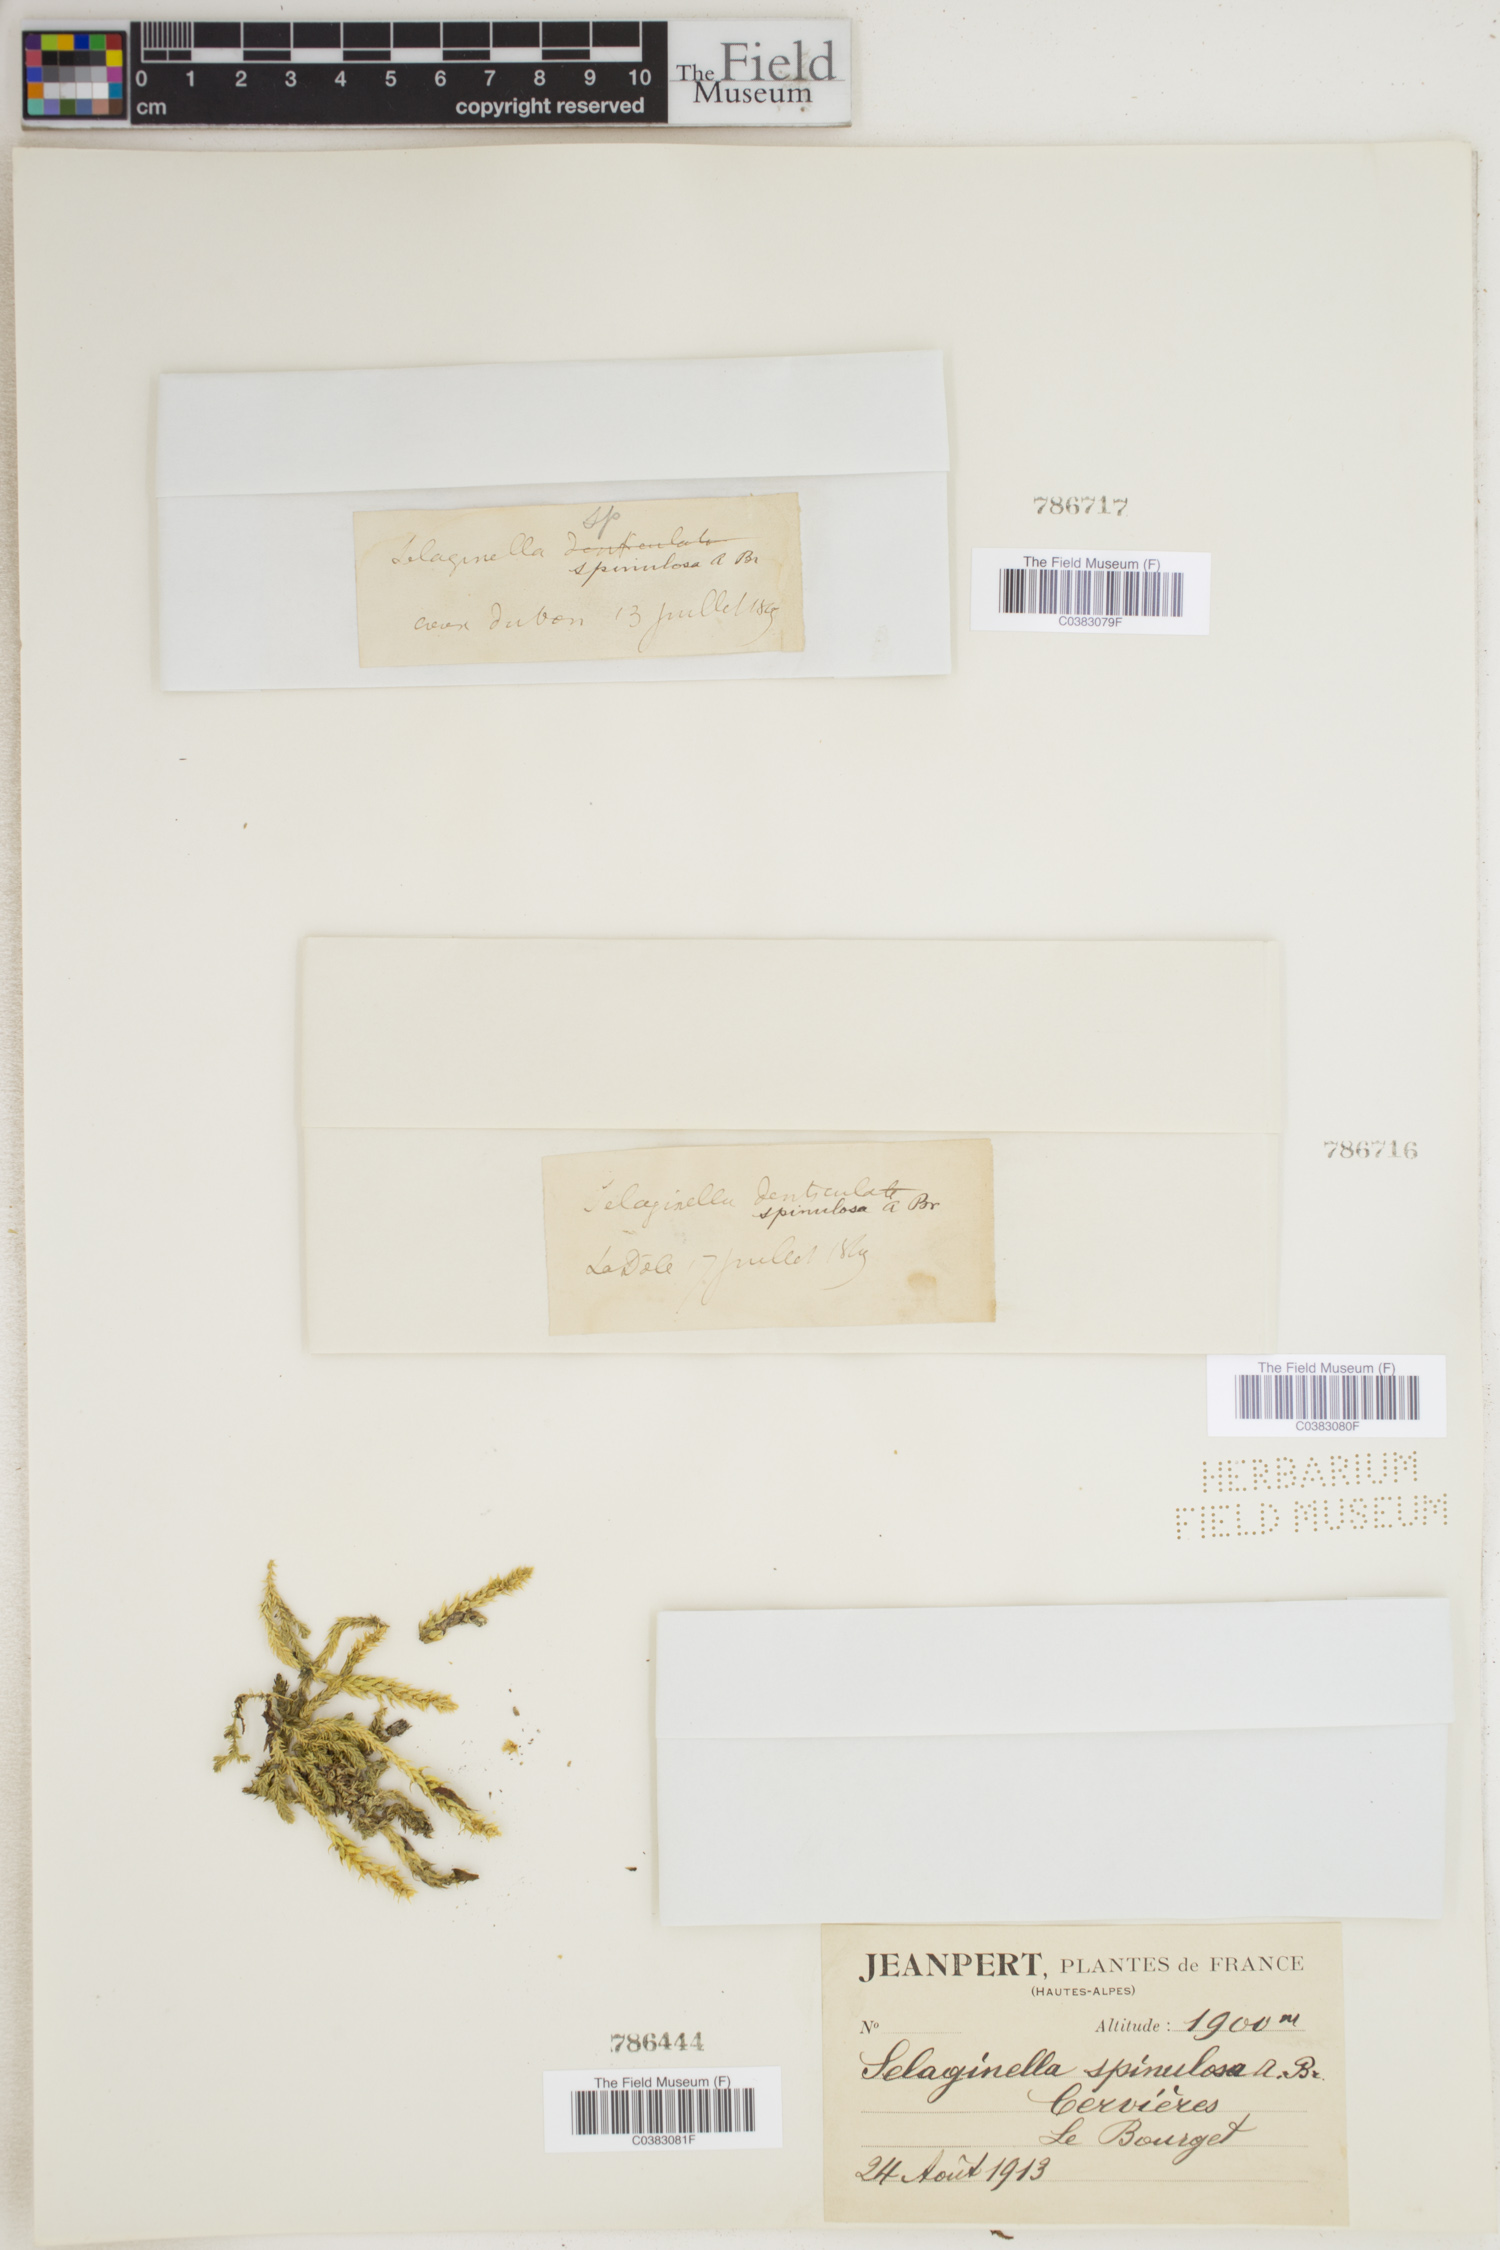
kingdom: Plantae
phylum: Tracheophyta
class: Lycopodiopsida
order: Selaginellales
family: Selaginellaceae
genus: Selaginella
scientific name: Selaginella selaginoides
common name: Prickly mountain-moss
